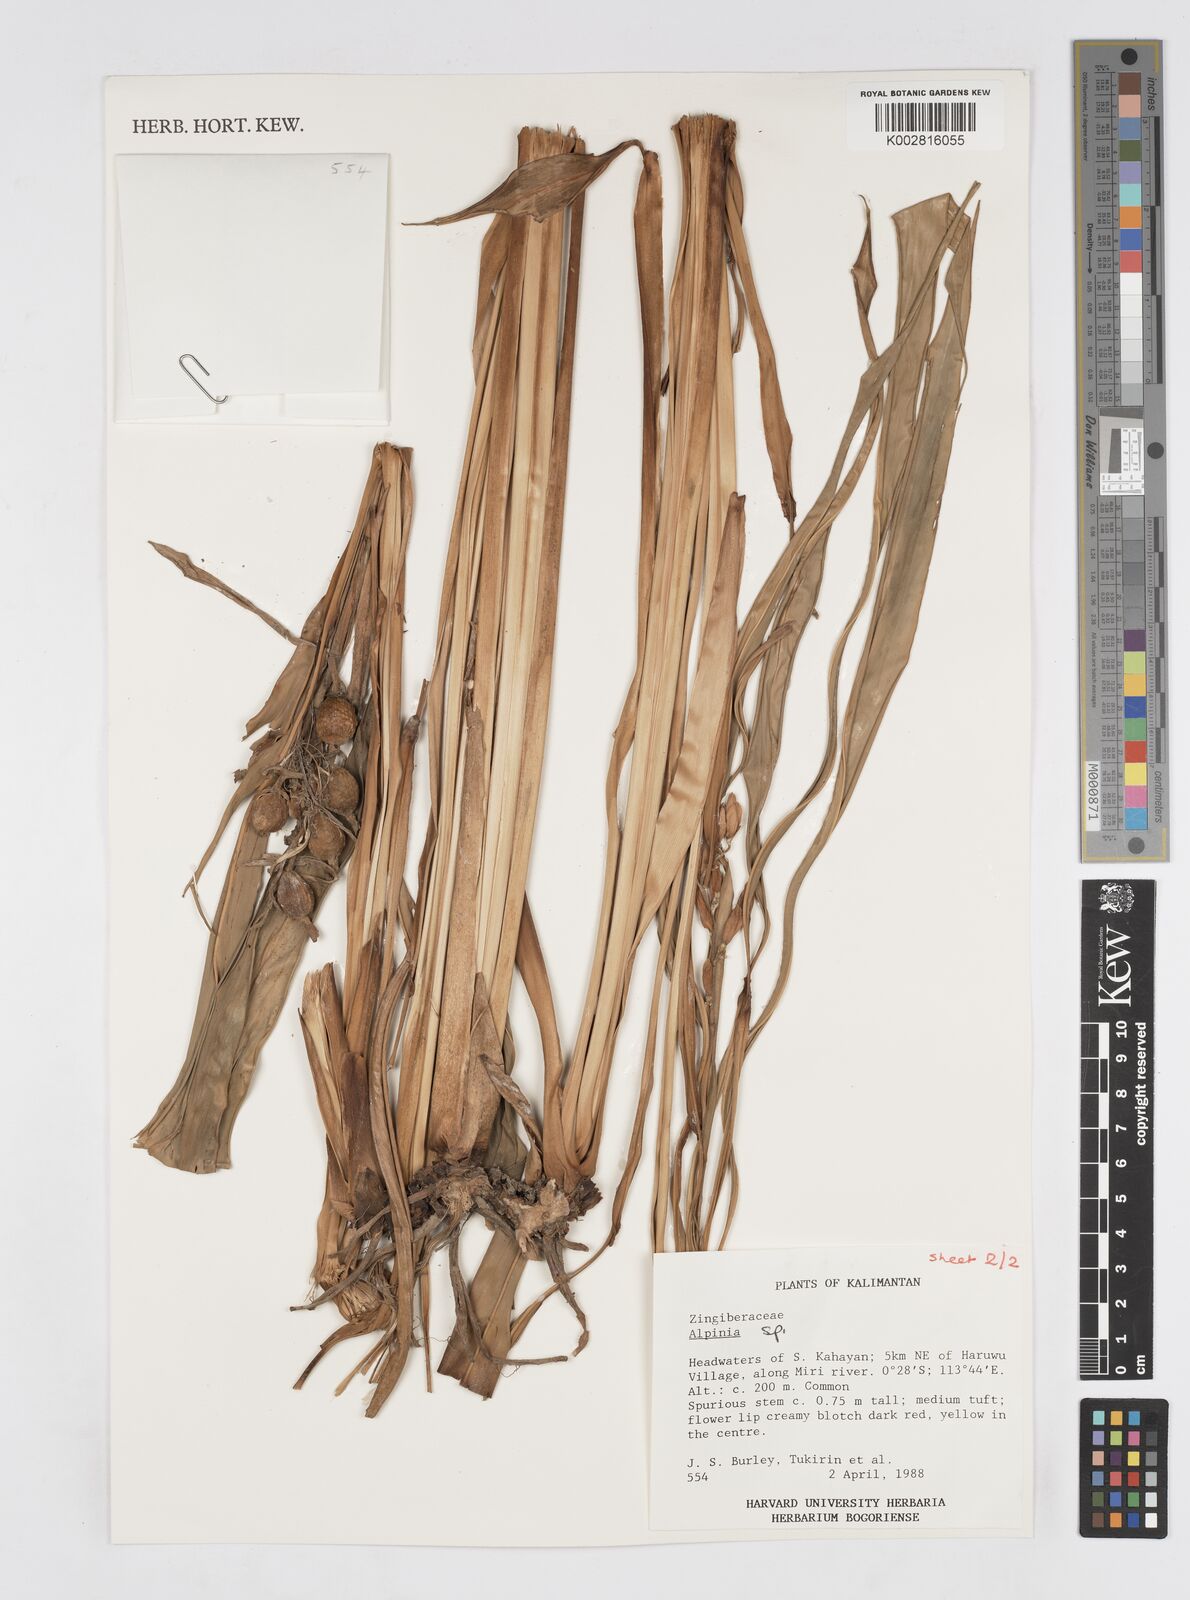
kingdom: Plantae
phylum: Tracheophyta
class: Liliopsida
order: Zingiberales
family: Zingiberaceae
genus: Alpinia
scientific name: Alpinia
